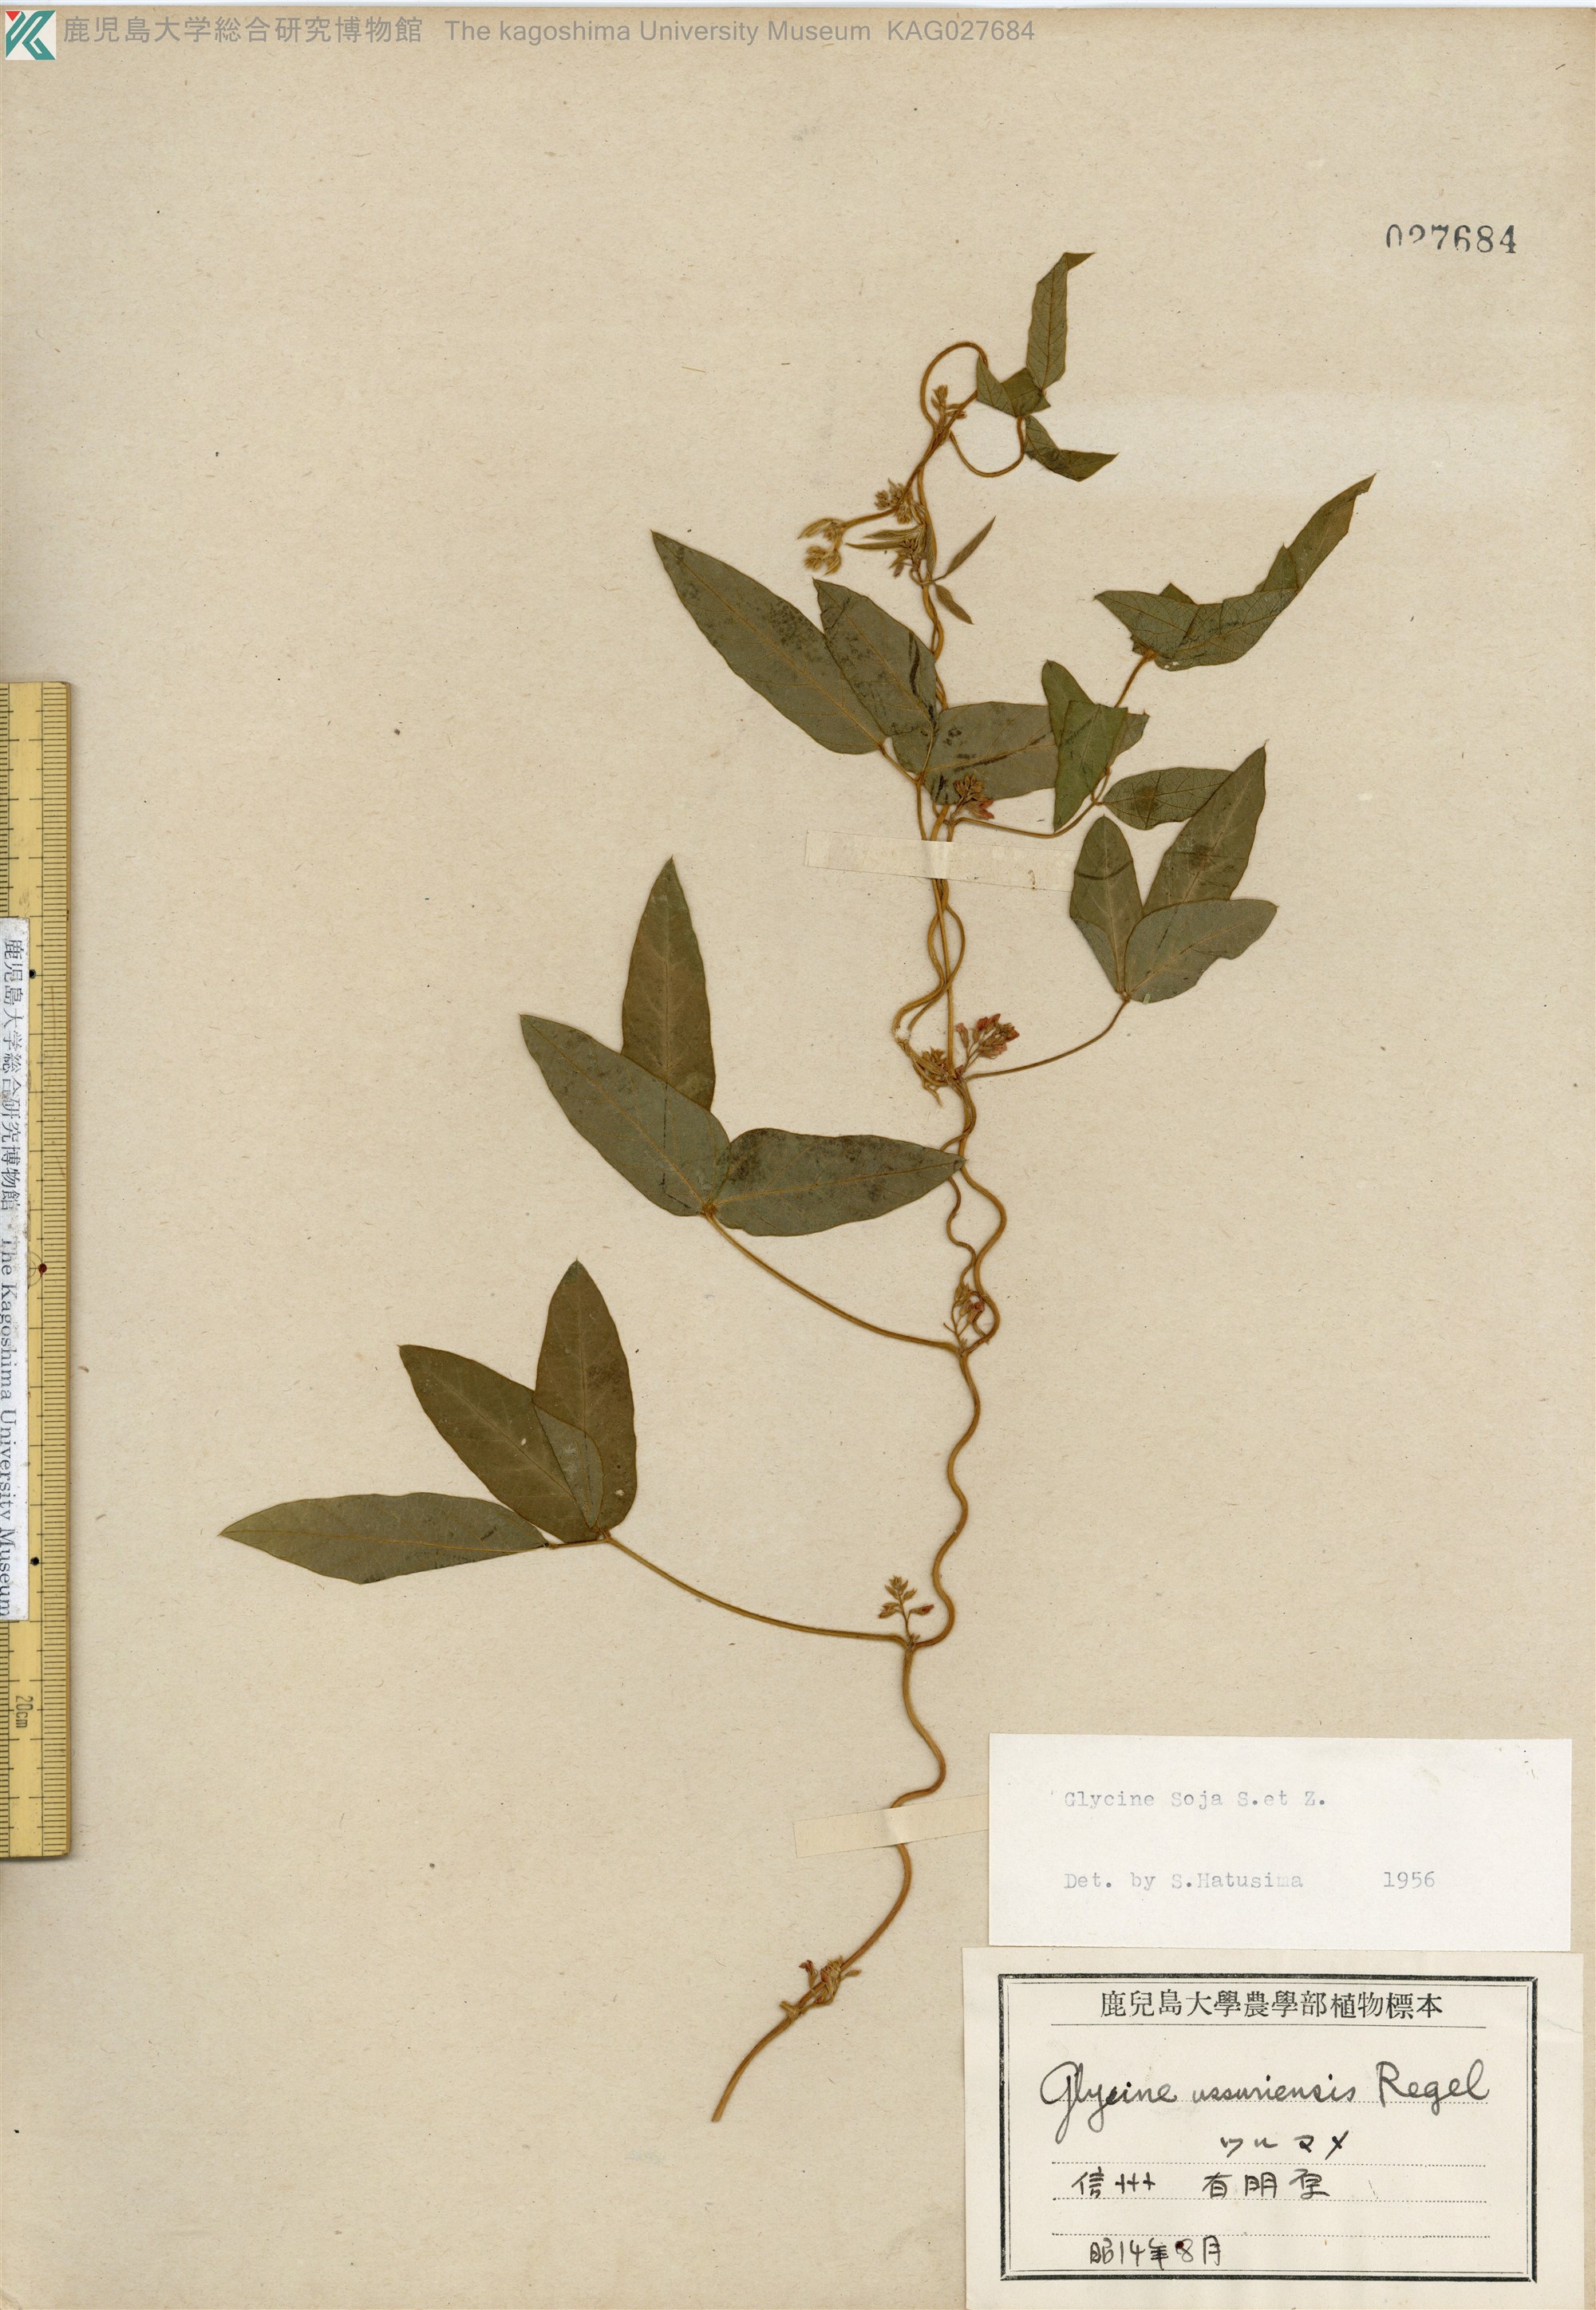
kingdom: Plantae
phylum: Tracheophyta
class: Magnoliopsida
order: Fabales
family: Fabaceae
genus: Glycine
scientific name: Glycine max
